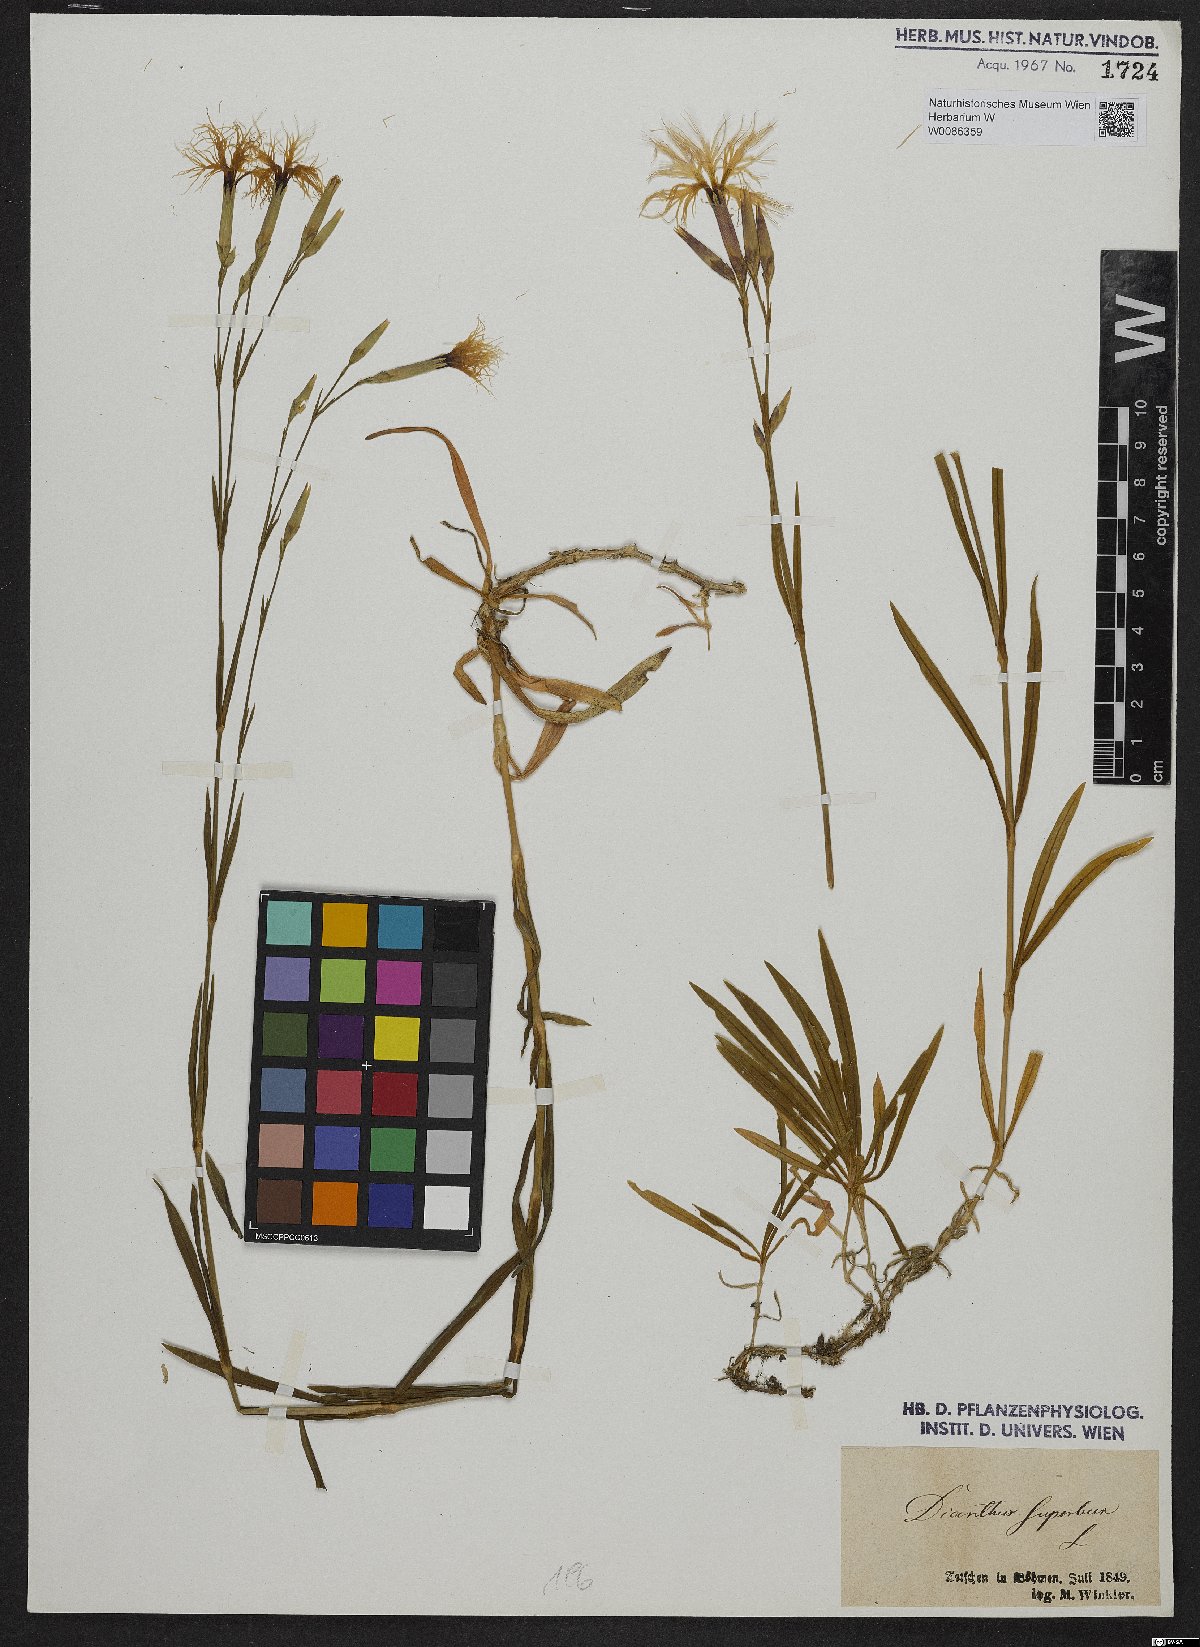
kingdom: Plantae
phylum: Tracheophyta
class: Magnoliopsida
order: Caryophyllales
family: Caryophyllaceae
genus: Dianthus
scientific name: Dianthus superbus
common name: Fringed pink
